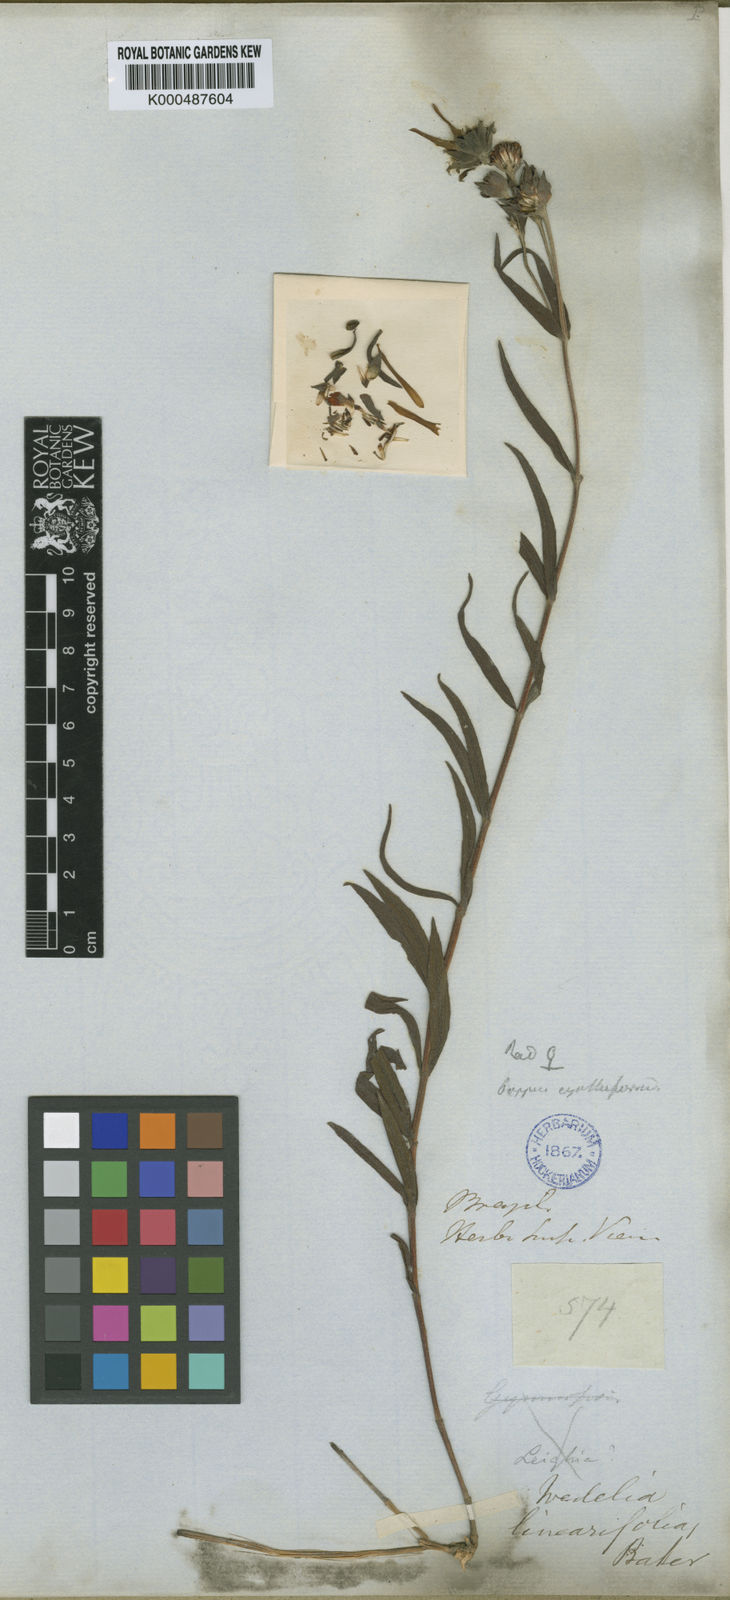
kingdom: Plantae
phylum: Tracheophyta
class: Magnoliopsida
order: Asterales
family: Asteraceae
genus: Wedelia
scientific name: Wedelia oligocephala
